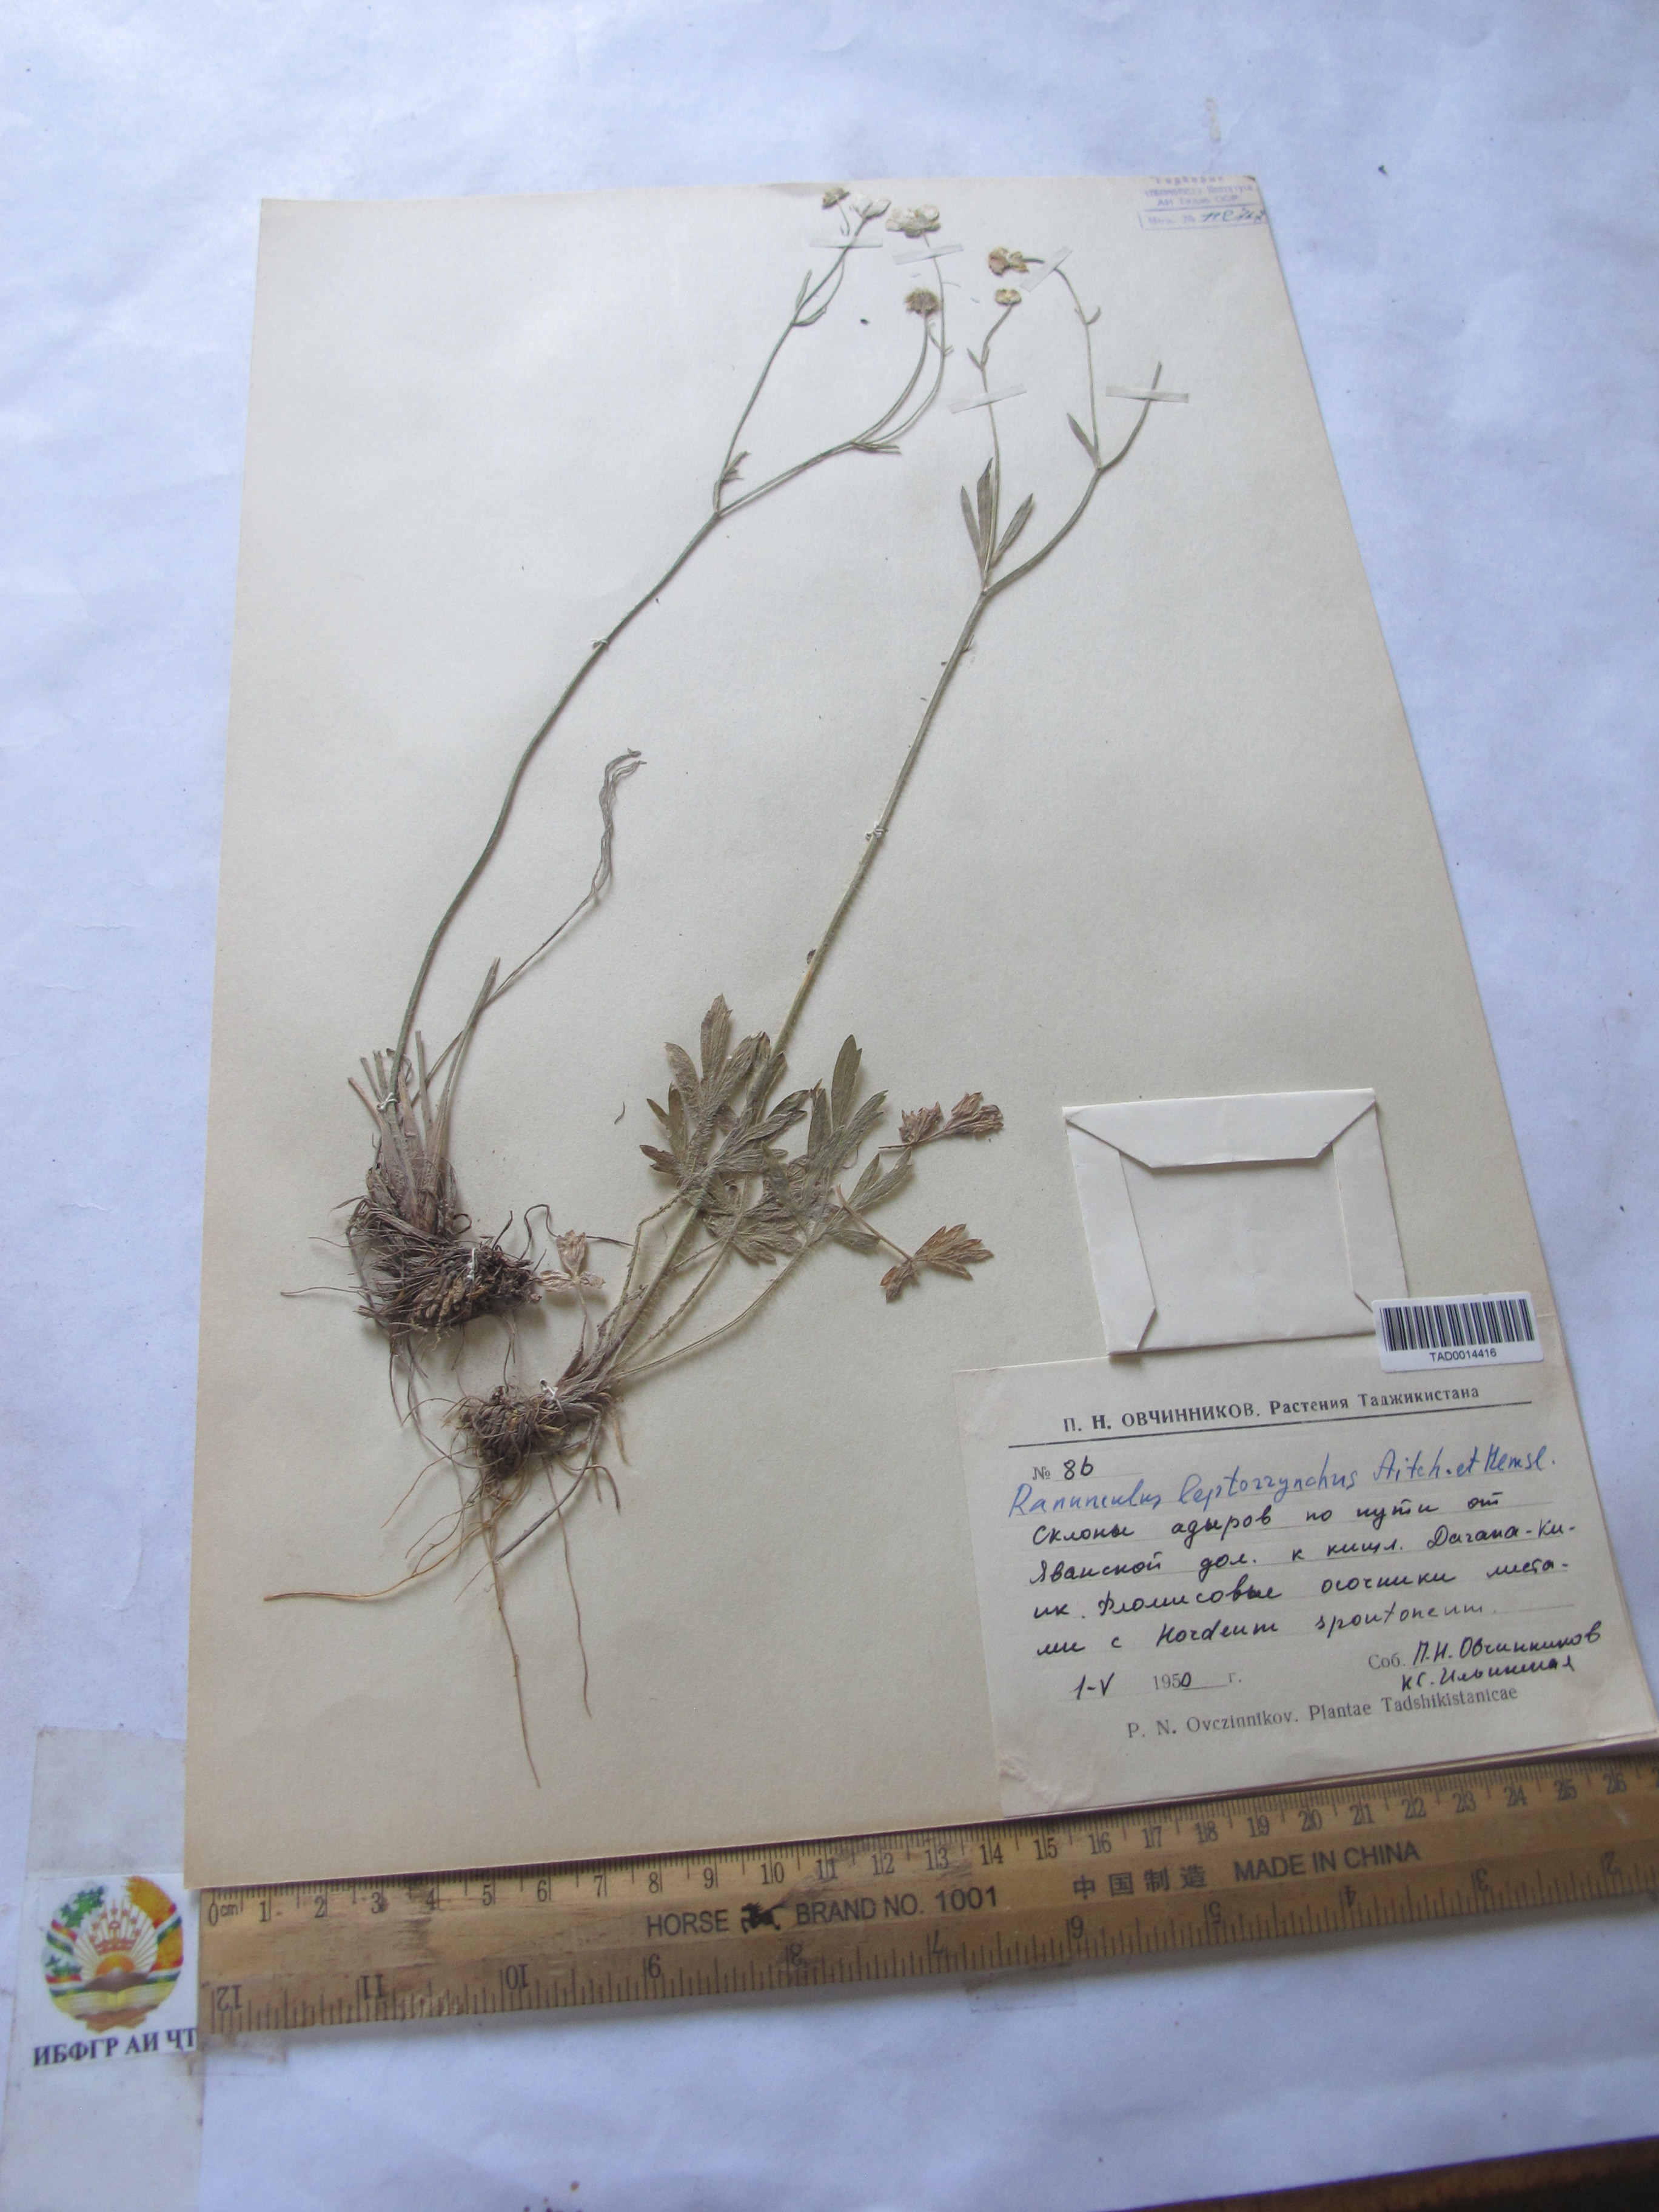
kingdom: Plantae
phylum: Tracheophyta
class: Magnoliopsida
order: Ranunculales
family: Ranunculaceae
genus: Ranunculus
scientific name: Ranunculus leptorrhynchus
